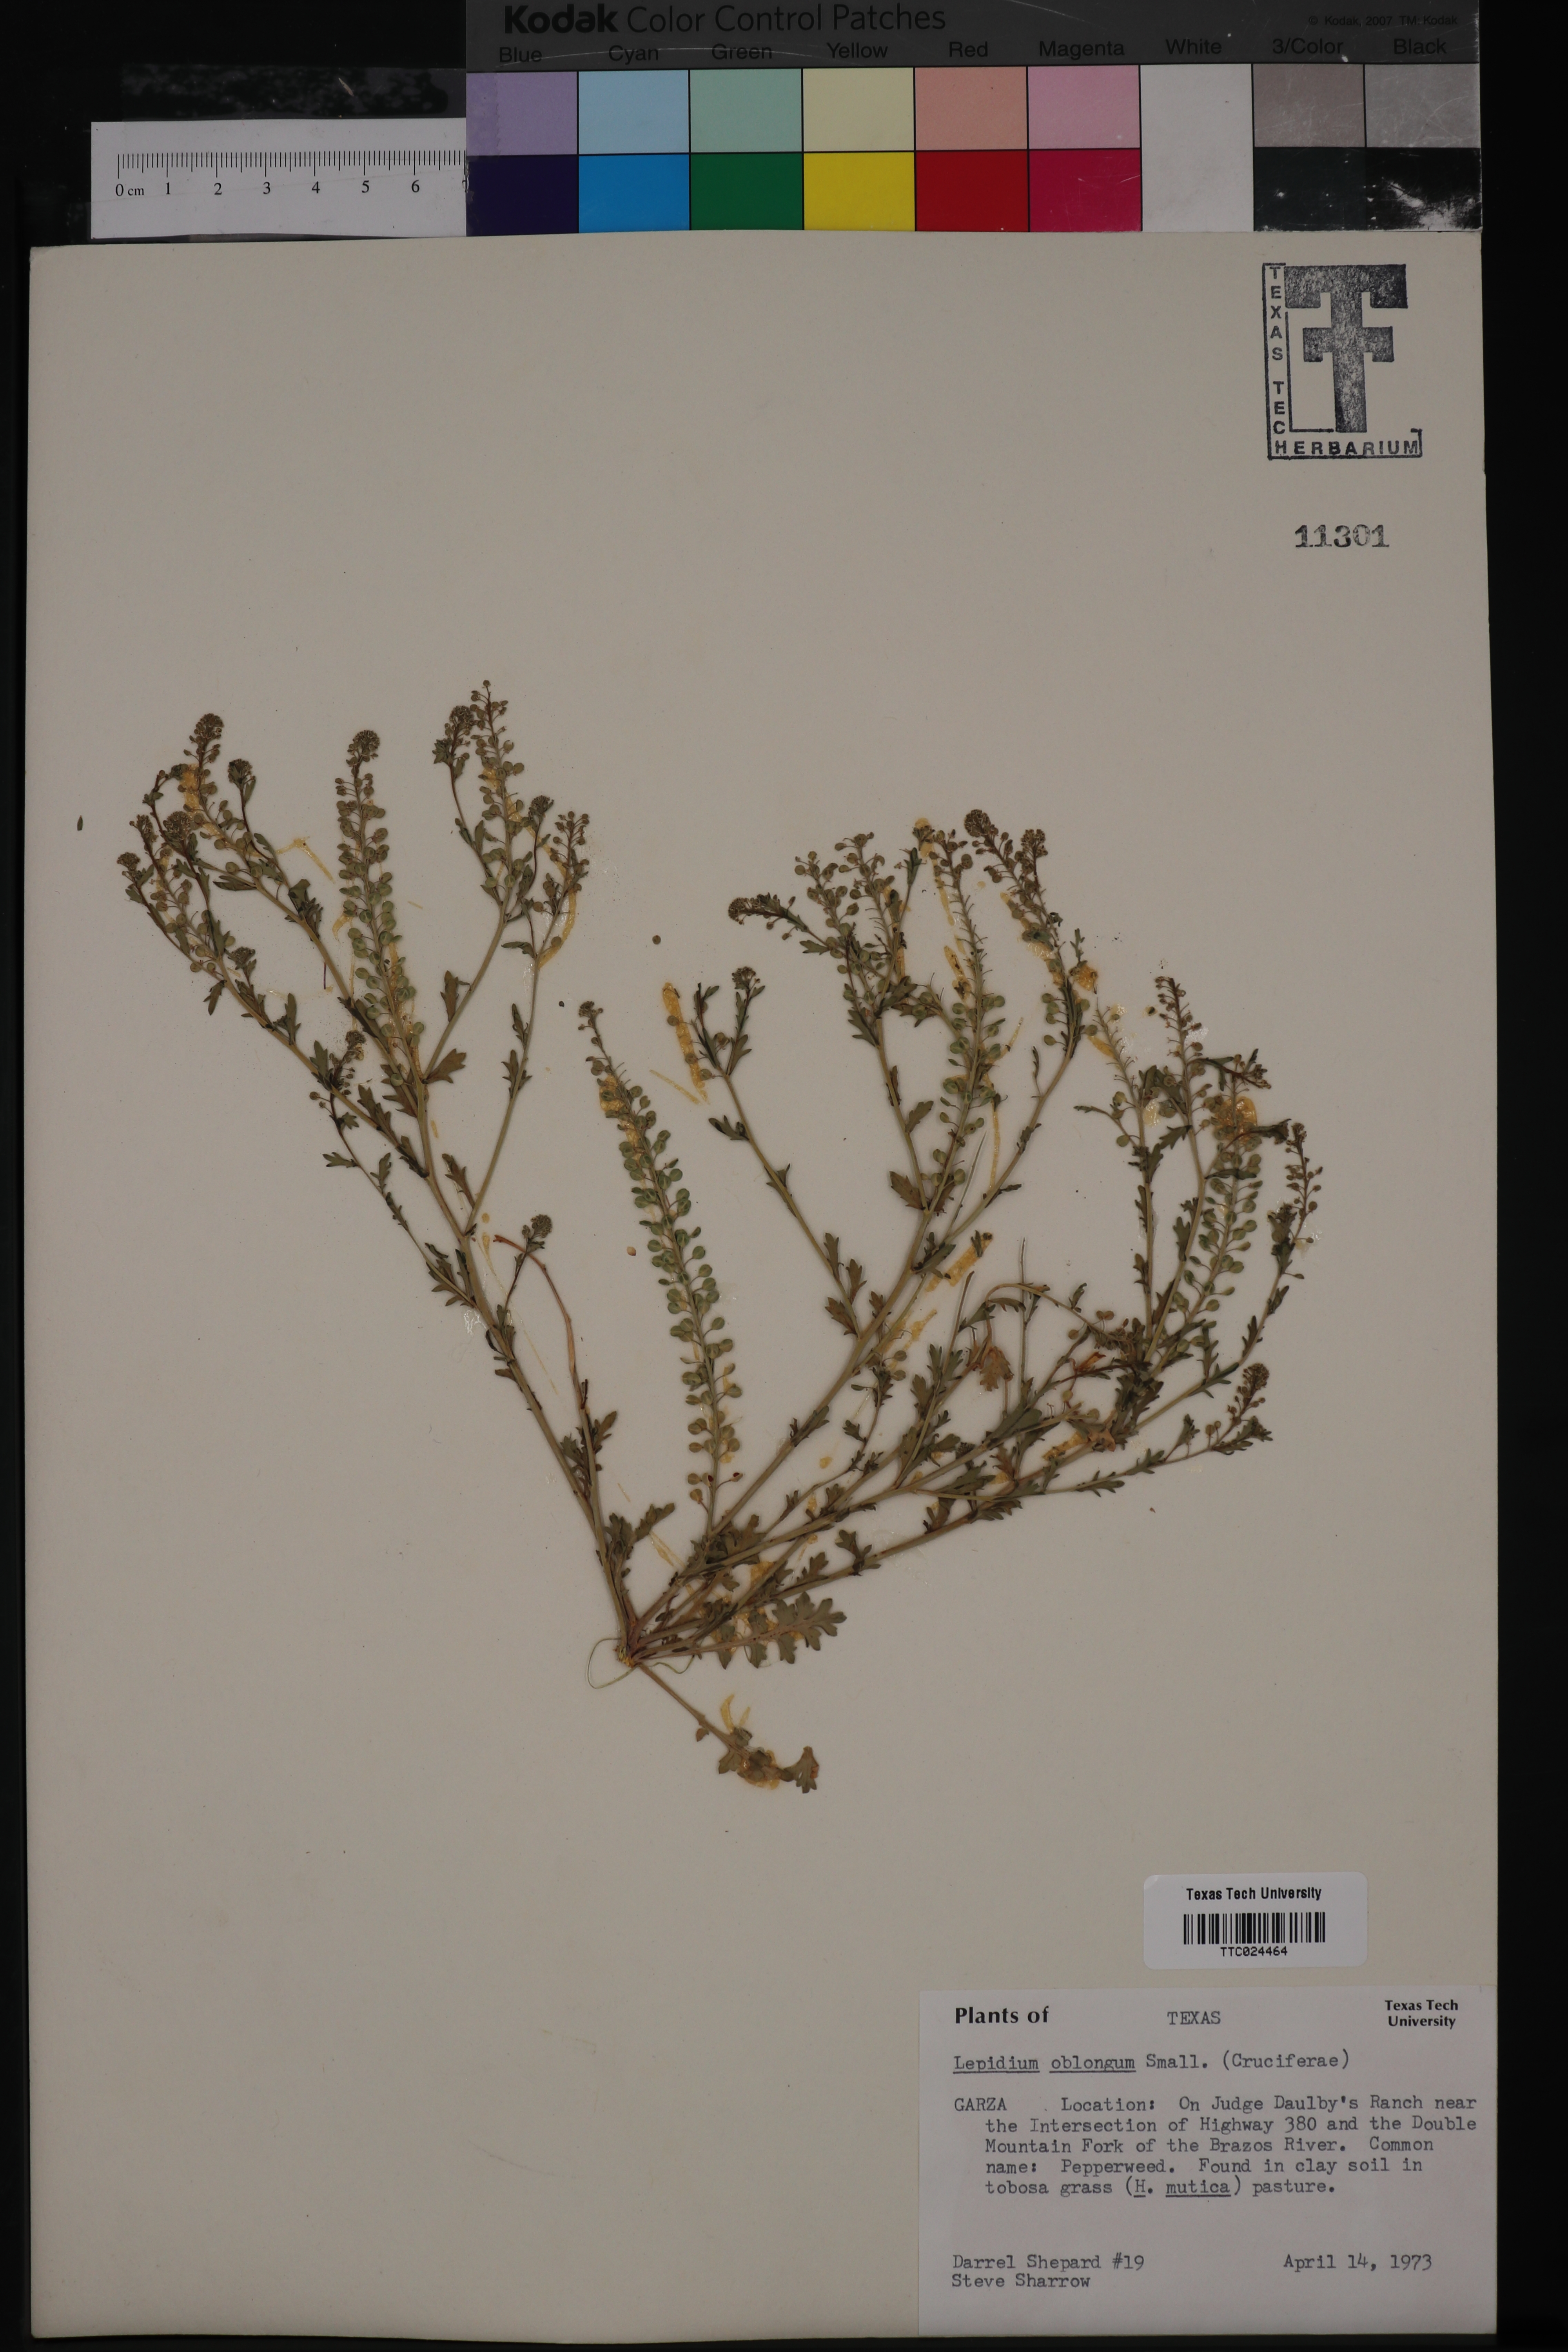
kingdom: Plantae
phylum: Tracheophyta
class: Magnoliopsida
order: Brassicales
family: Brassicaceae
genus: Lepidium
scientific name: Lepidium oblongum
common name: Veiny pepperweed
